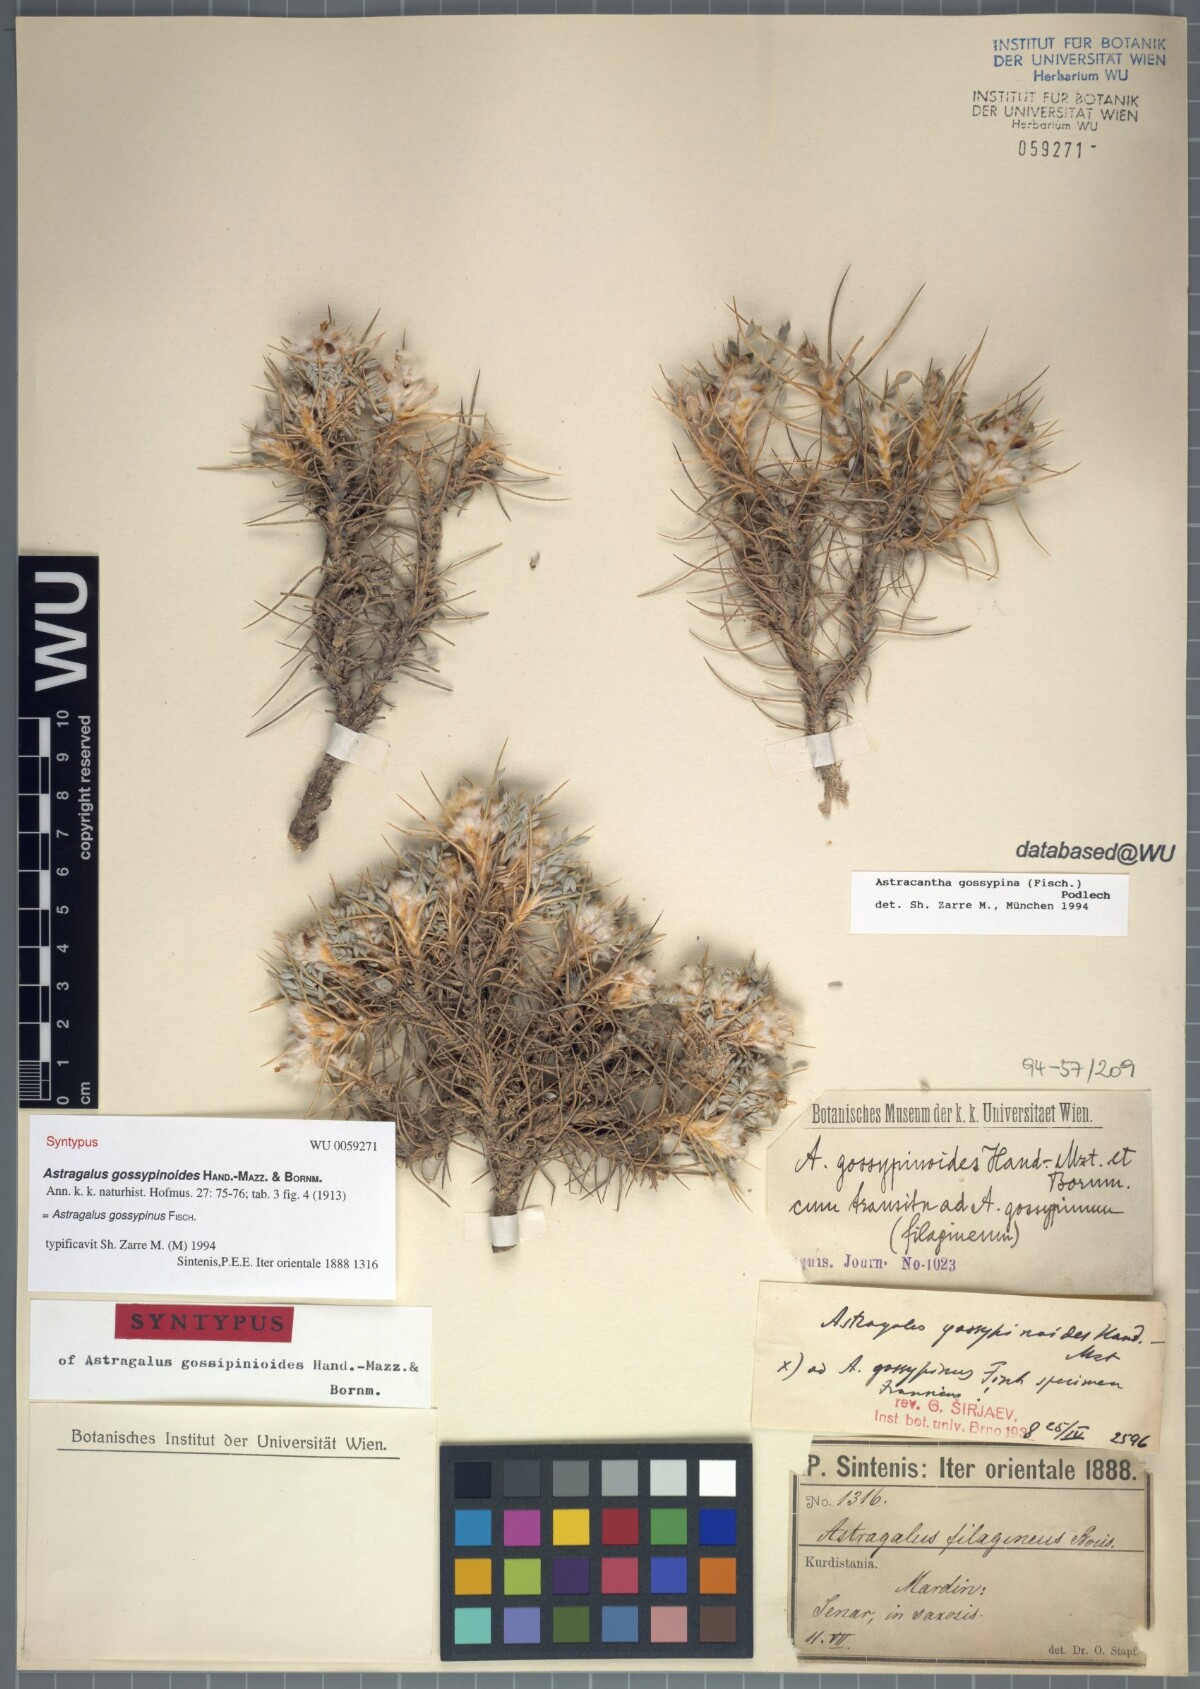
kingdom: Plantae
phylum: Tracheophyta
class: Magnoliopsida
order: Fabales
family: Fabaceae
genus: Astragalus
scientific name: Astragalus gossypinus
